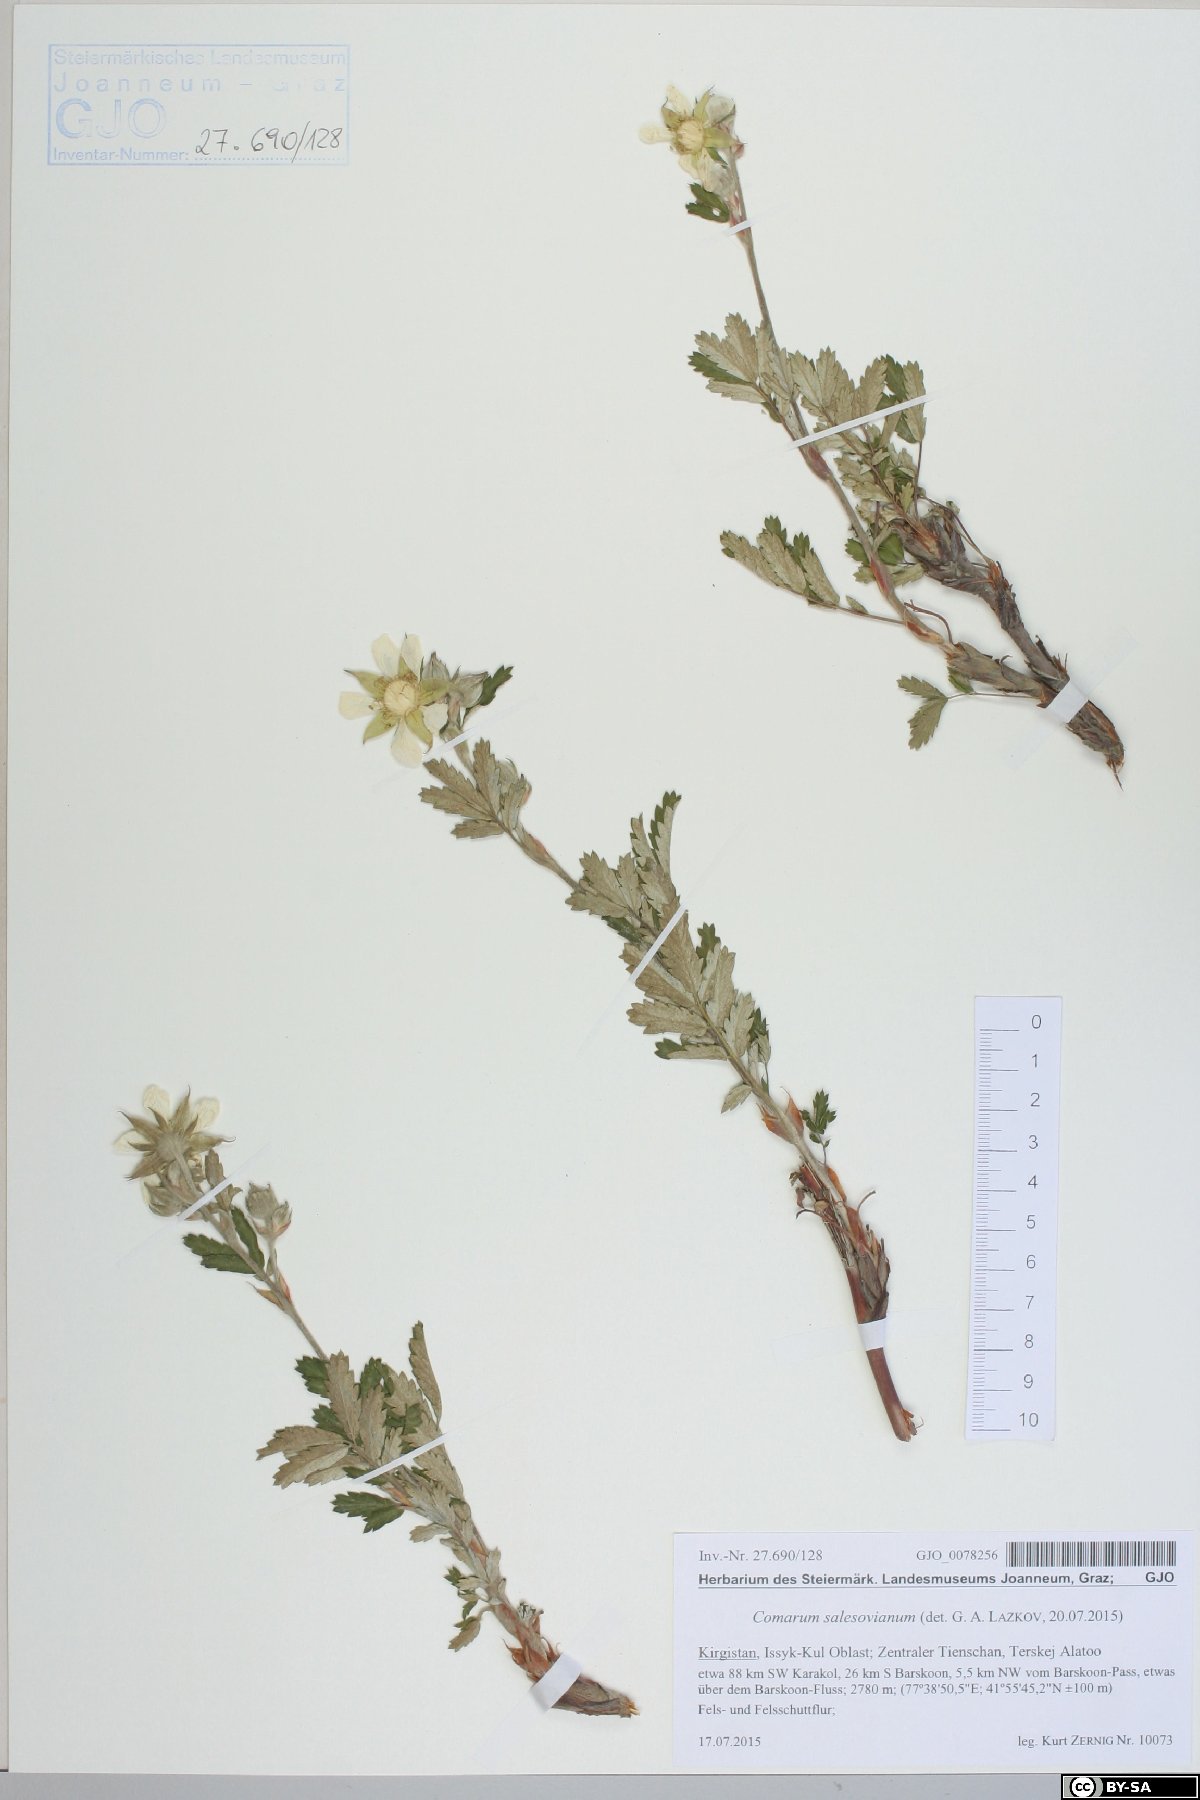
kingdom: Plantae
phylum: Tracheophyta
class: Magnoliopsida
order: Rosales
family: Rosaceae
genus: Farinopsis
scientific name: Farinopsis salesoviana
